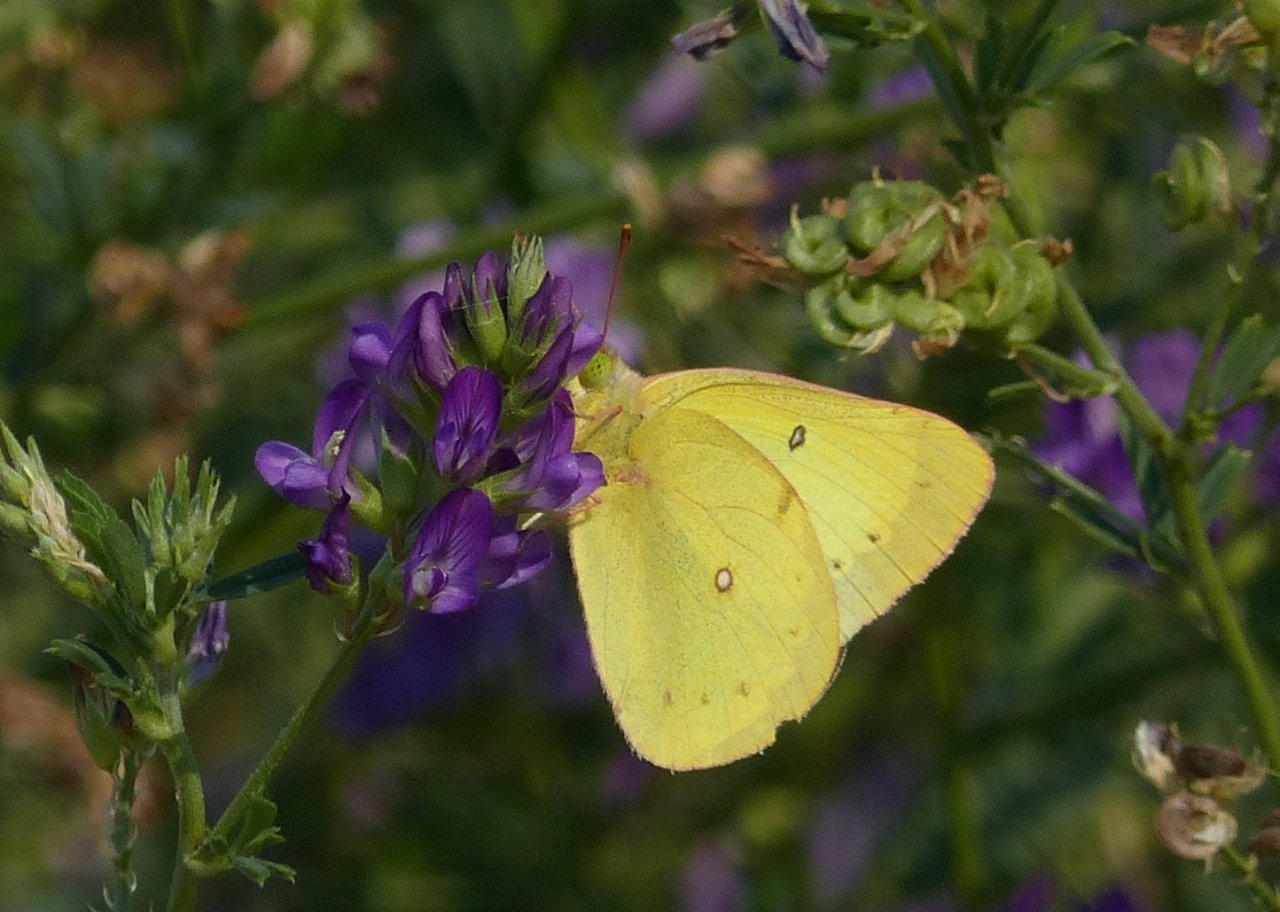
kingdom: Animalia
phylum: Arthropoda
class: Insecta
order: Lepidoptera
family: Pieridae
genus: Colias
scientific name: Colias philodice
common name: Clouded Sulphur
